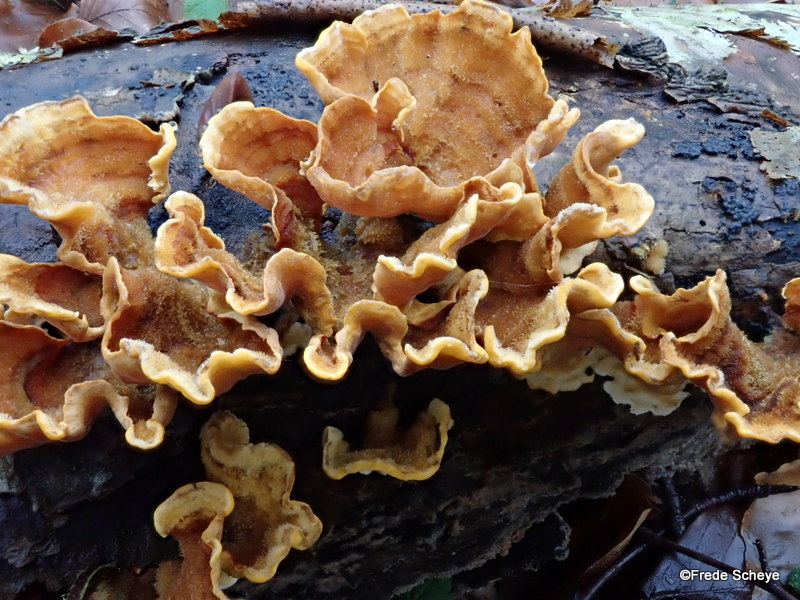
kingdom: Fungi
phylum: Basidiomycota
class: Agaricomycetes
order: Russulales
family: Stereaceae
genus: Stereum
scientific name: Stereum hirsutum
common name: håret lædersvamp
